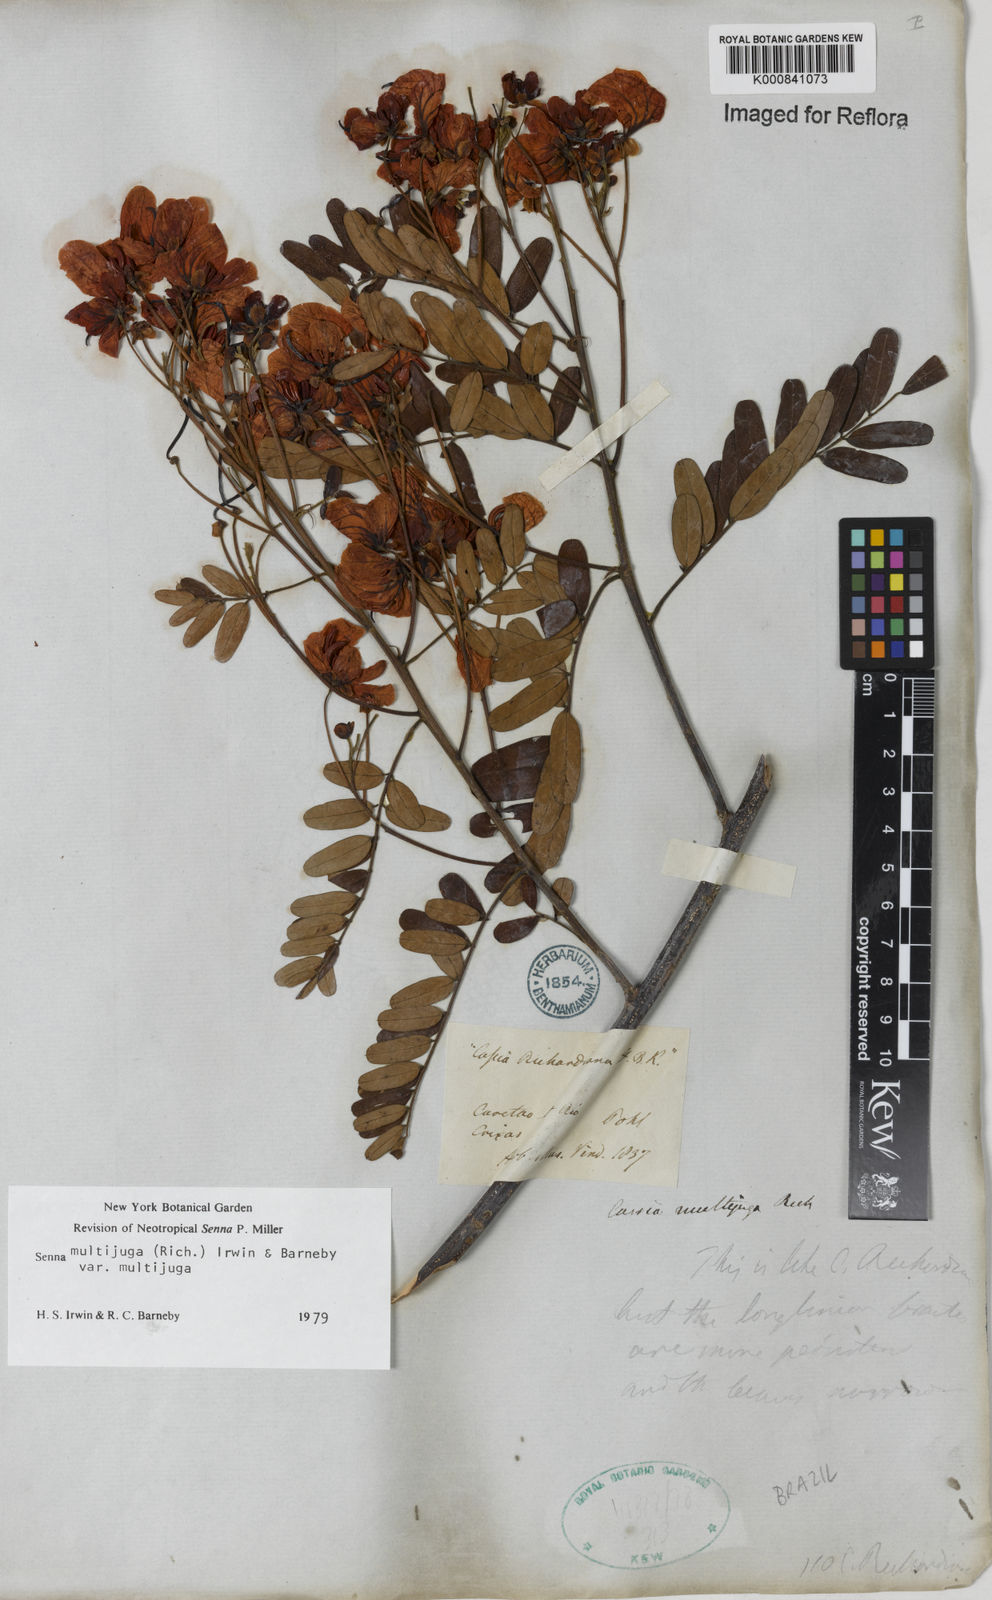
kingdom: Plantae
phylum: Tracheophyta
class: Magnoliopsida
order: Fabales
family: Fabaceae
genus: Senna
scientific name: Senna multijuga
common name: False sicklepod
